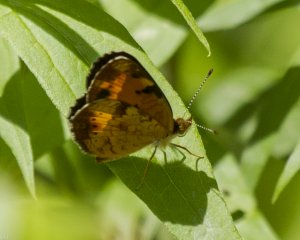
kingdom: Animalia
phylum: Arthropoda
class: Insecta
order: Lepidoptera
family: Nymphalidae
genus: Phyciodes
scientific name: Phyciodes tharos
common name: Northern Crescent
